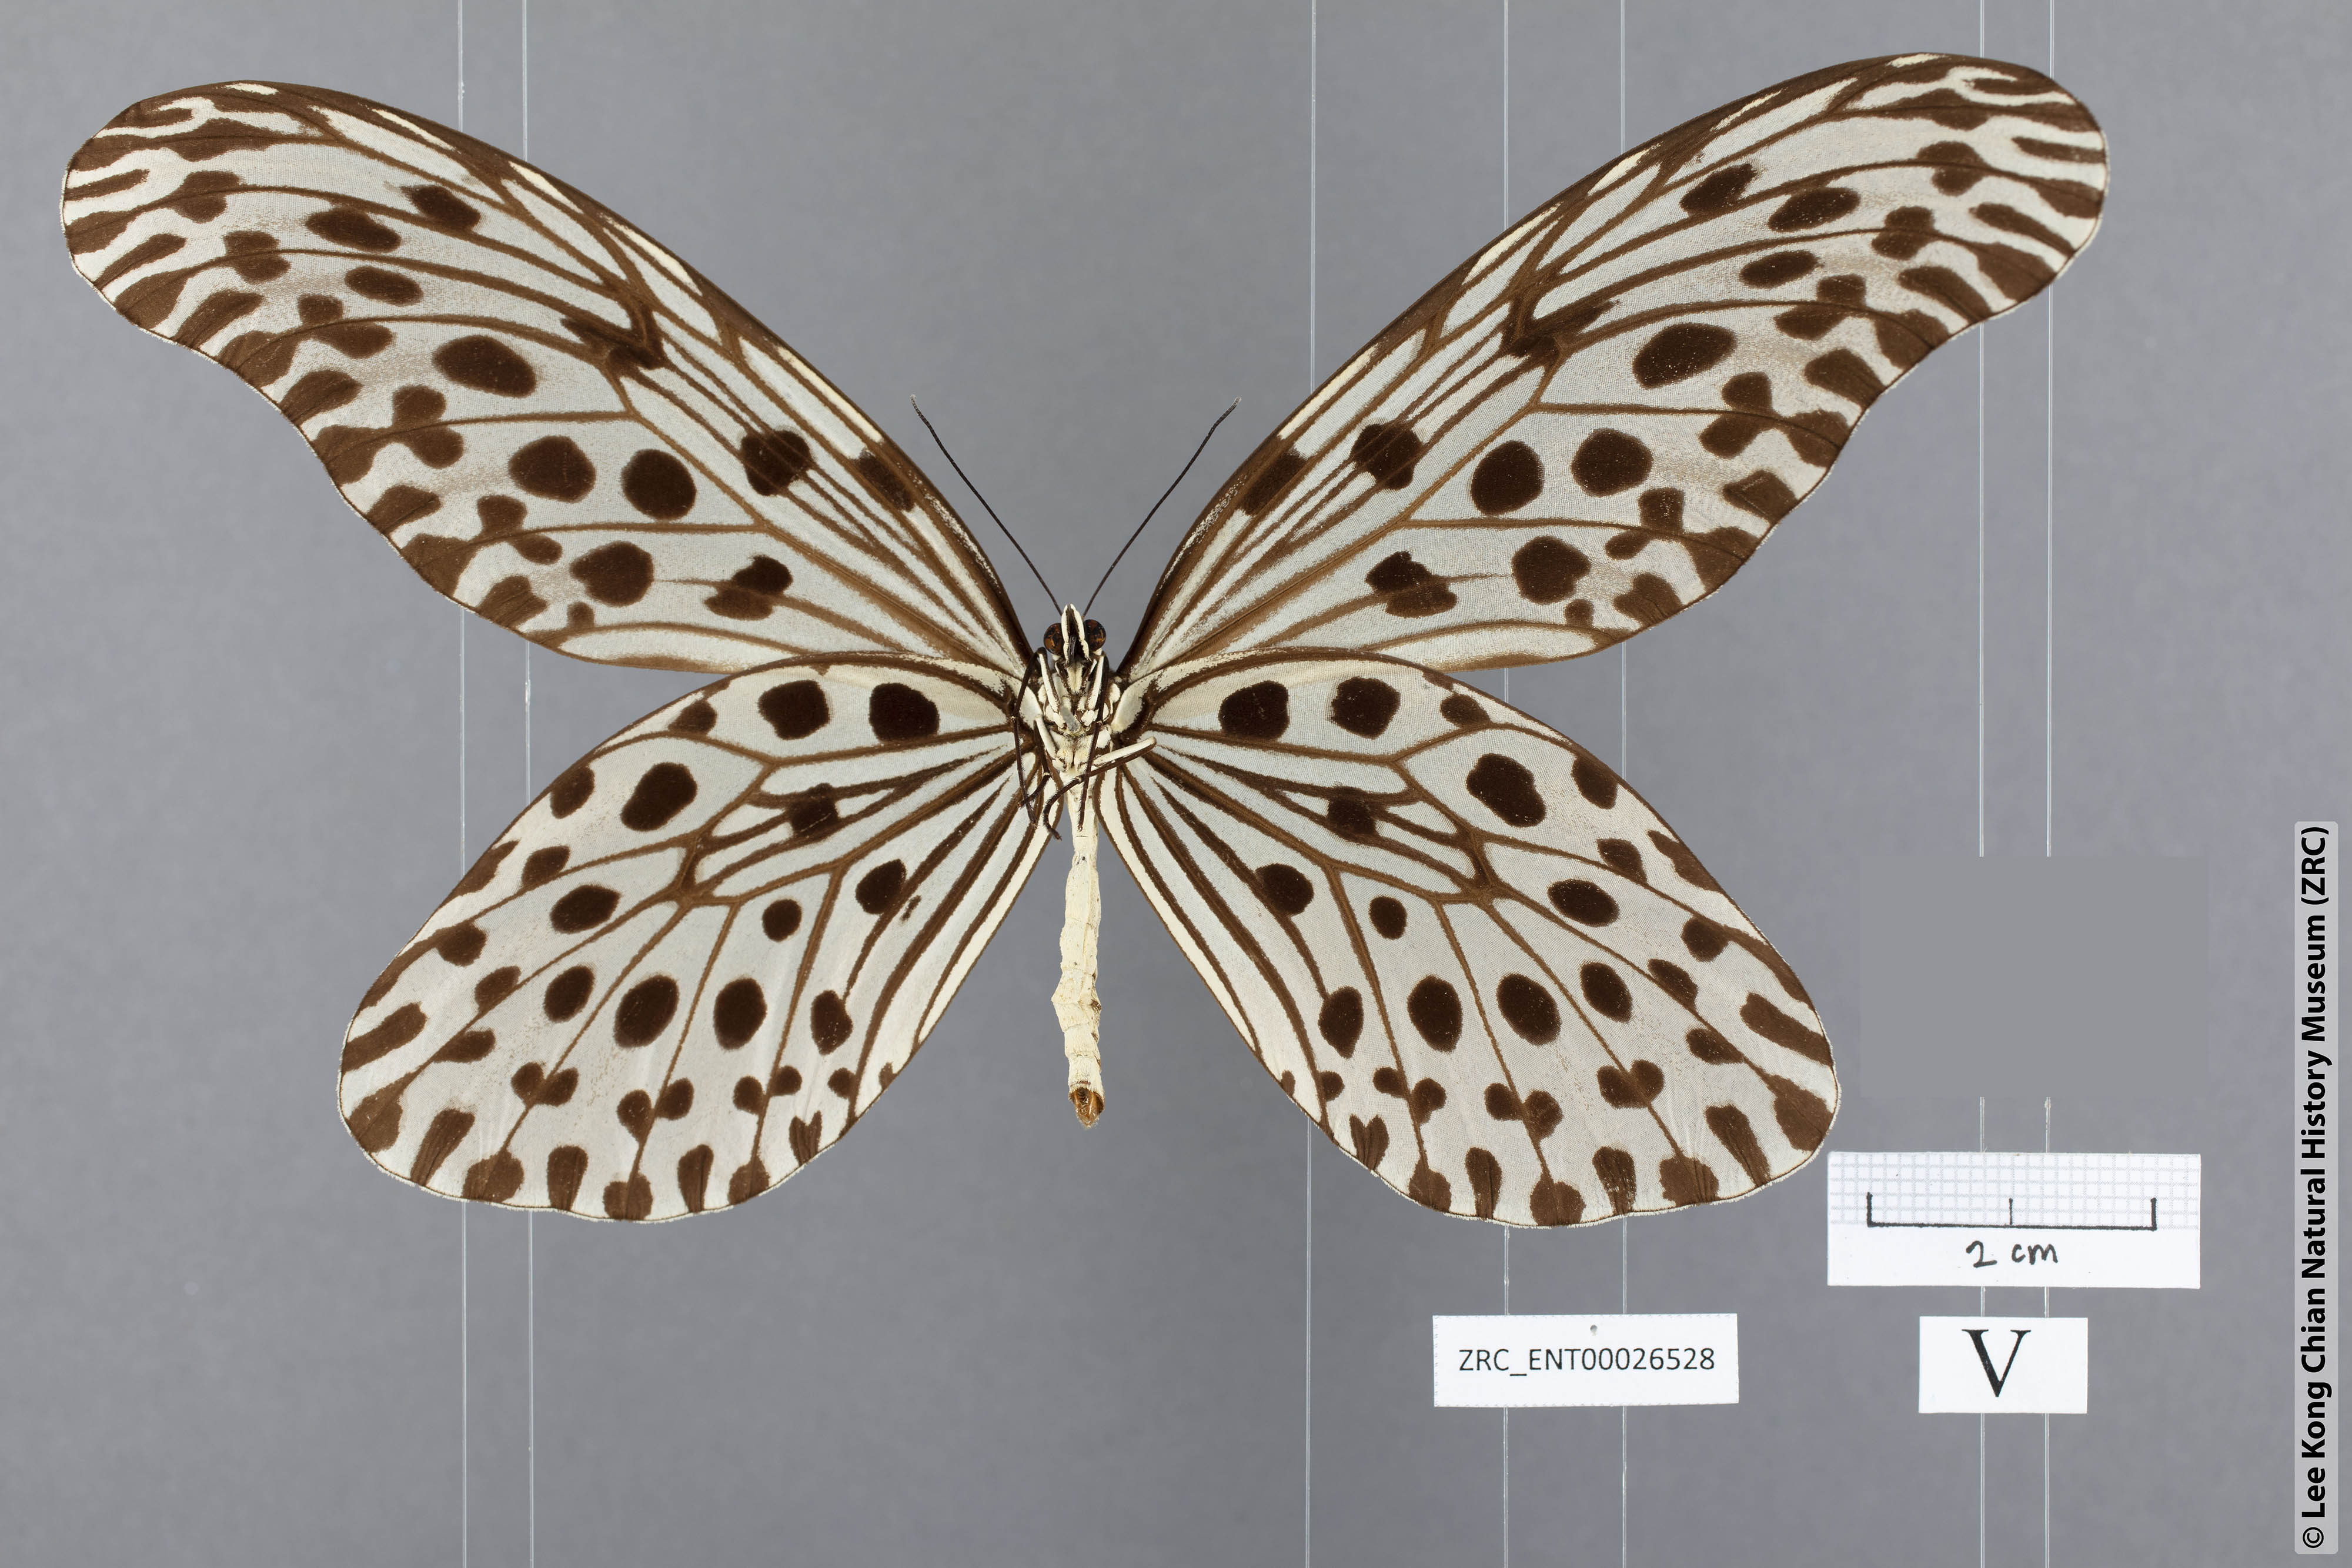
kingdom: Animalia
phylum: Arthropoda
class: Insecta
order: Lepidoptera
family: Nymphalidae
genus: Idea
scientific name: Idea stolli
